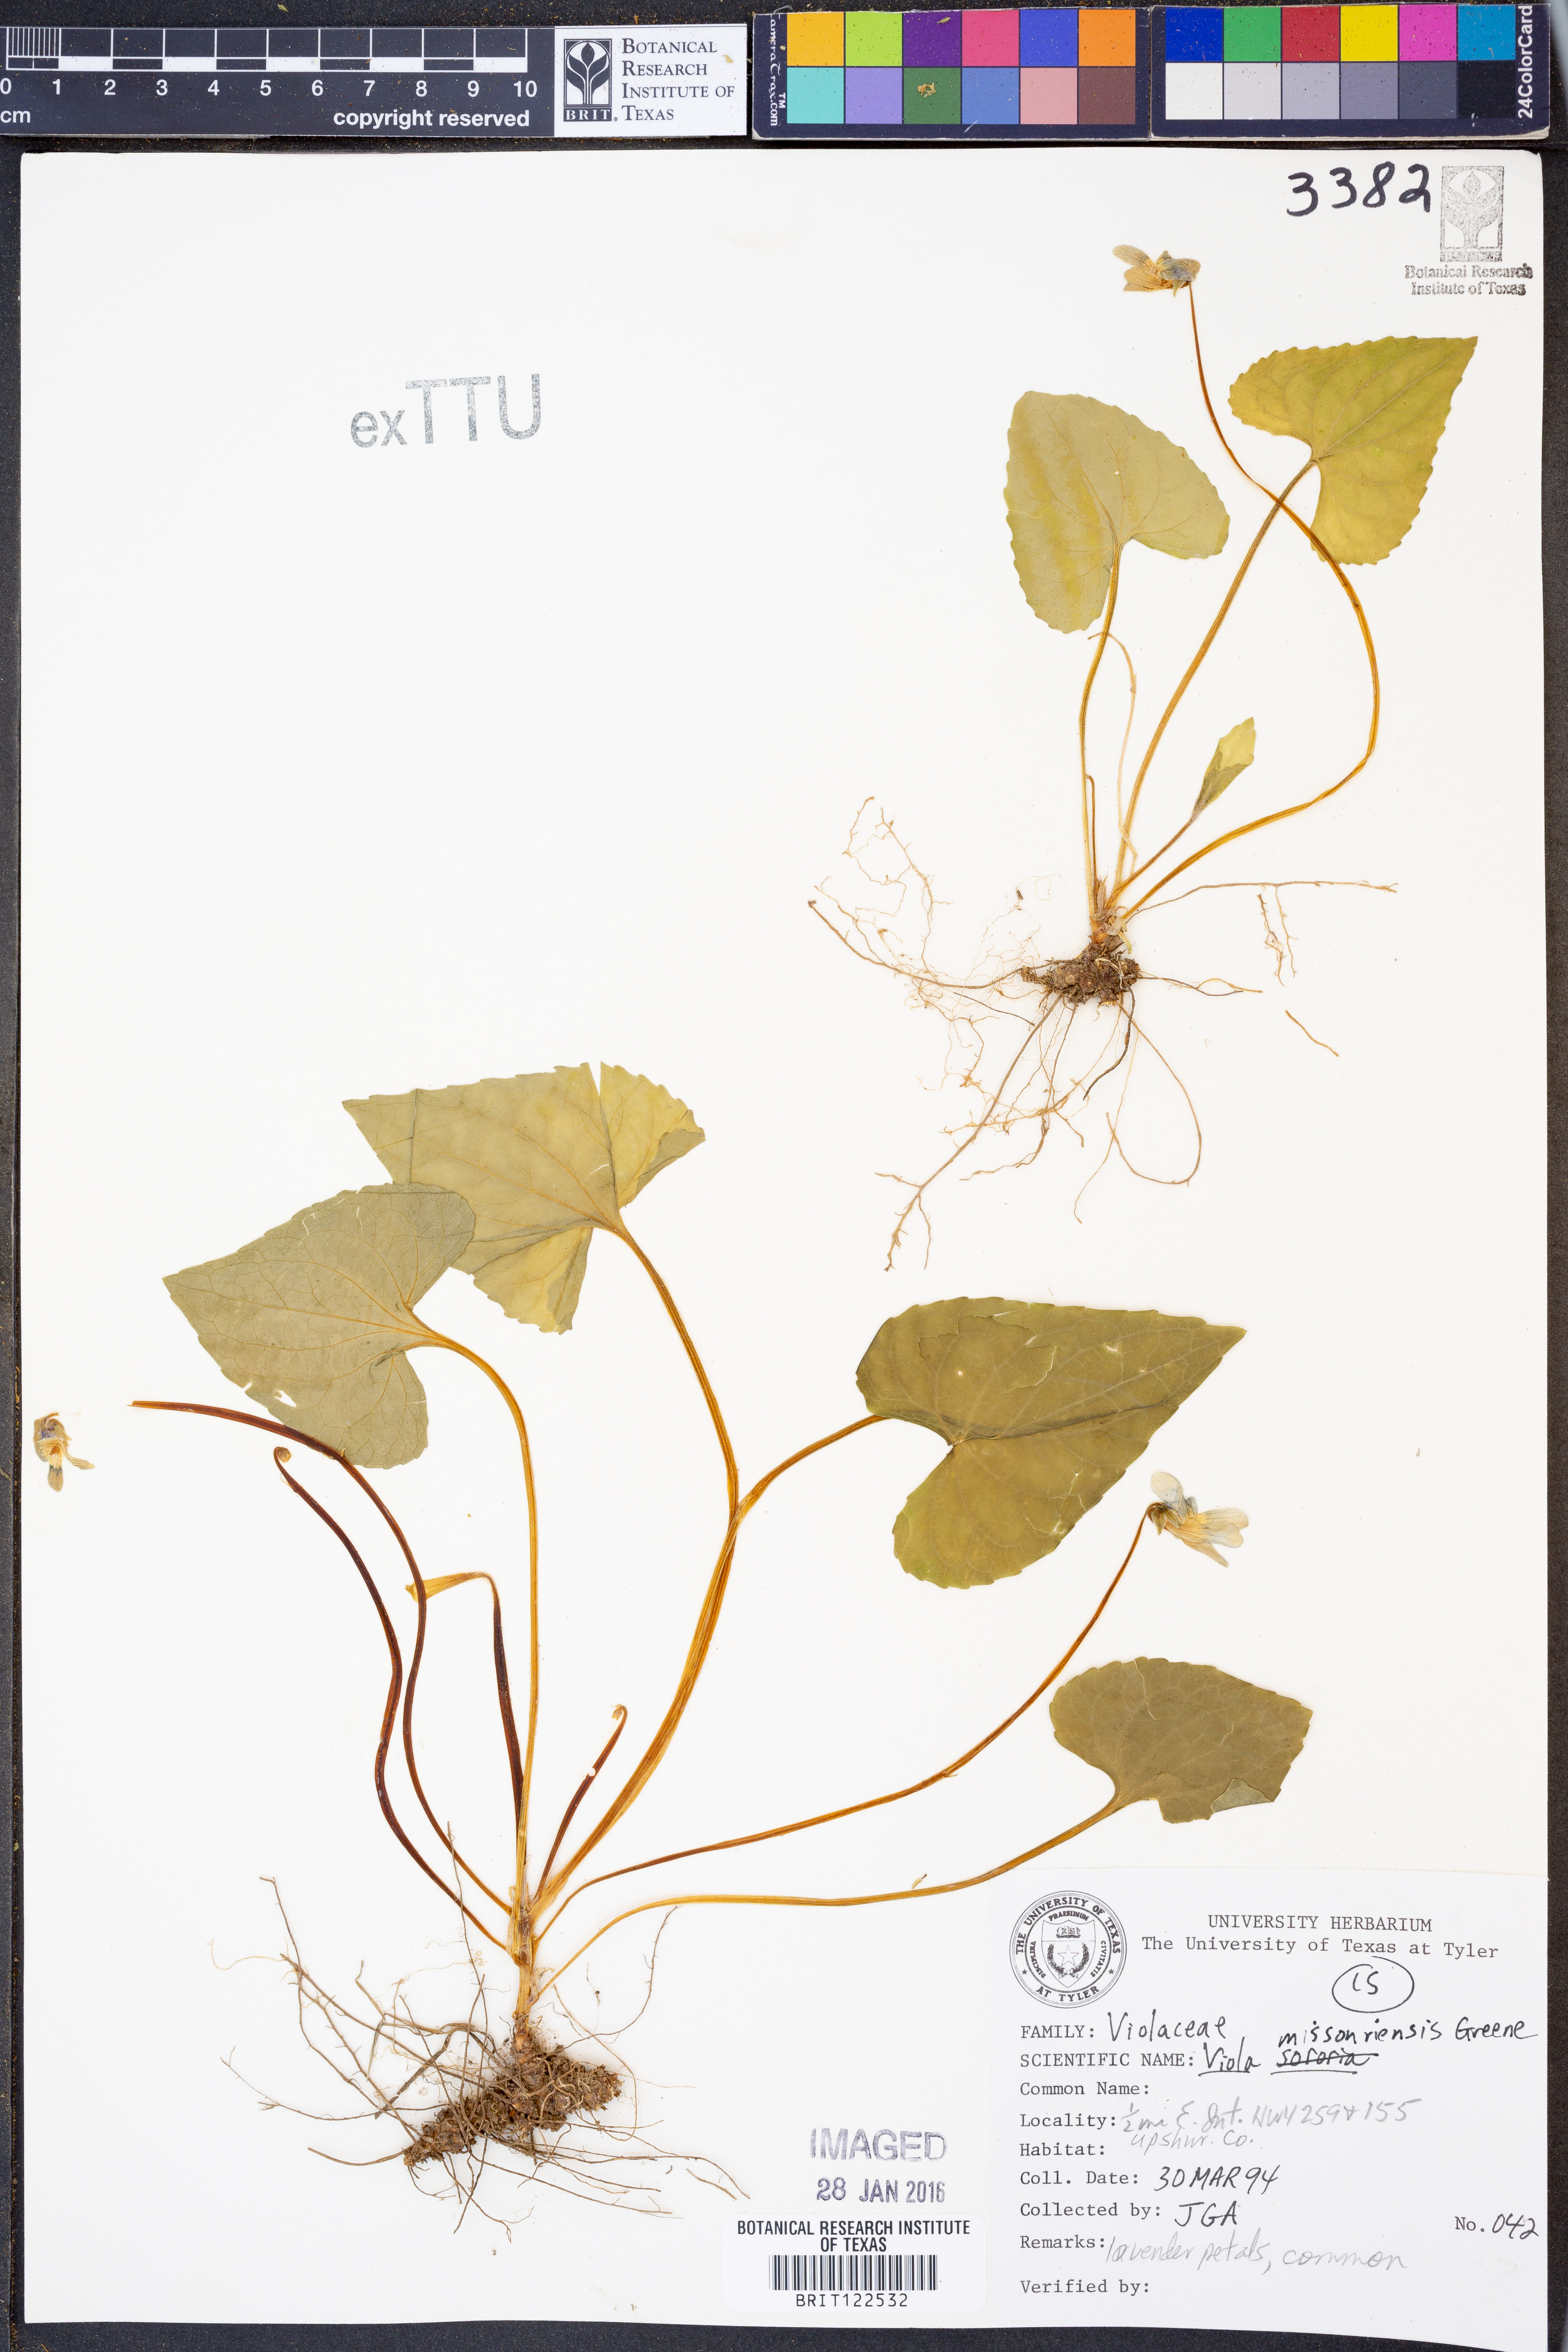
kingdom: Plantae
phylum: Tracheophyta
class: Magnoliopsida
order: Malpighiales
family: Violaceae
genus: Viola
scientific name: Viola missouriensis
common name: Missouri violet
